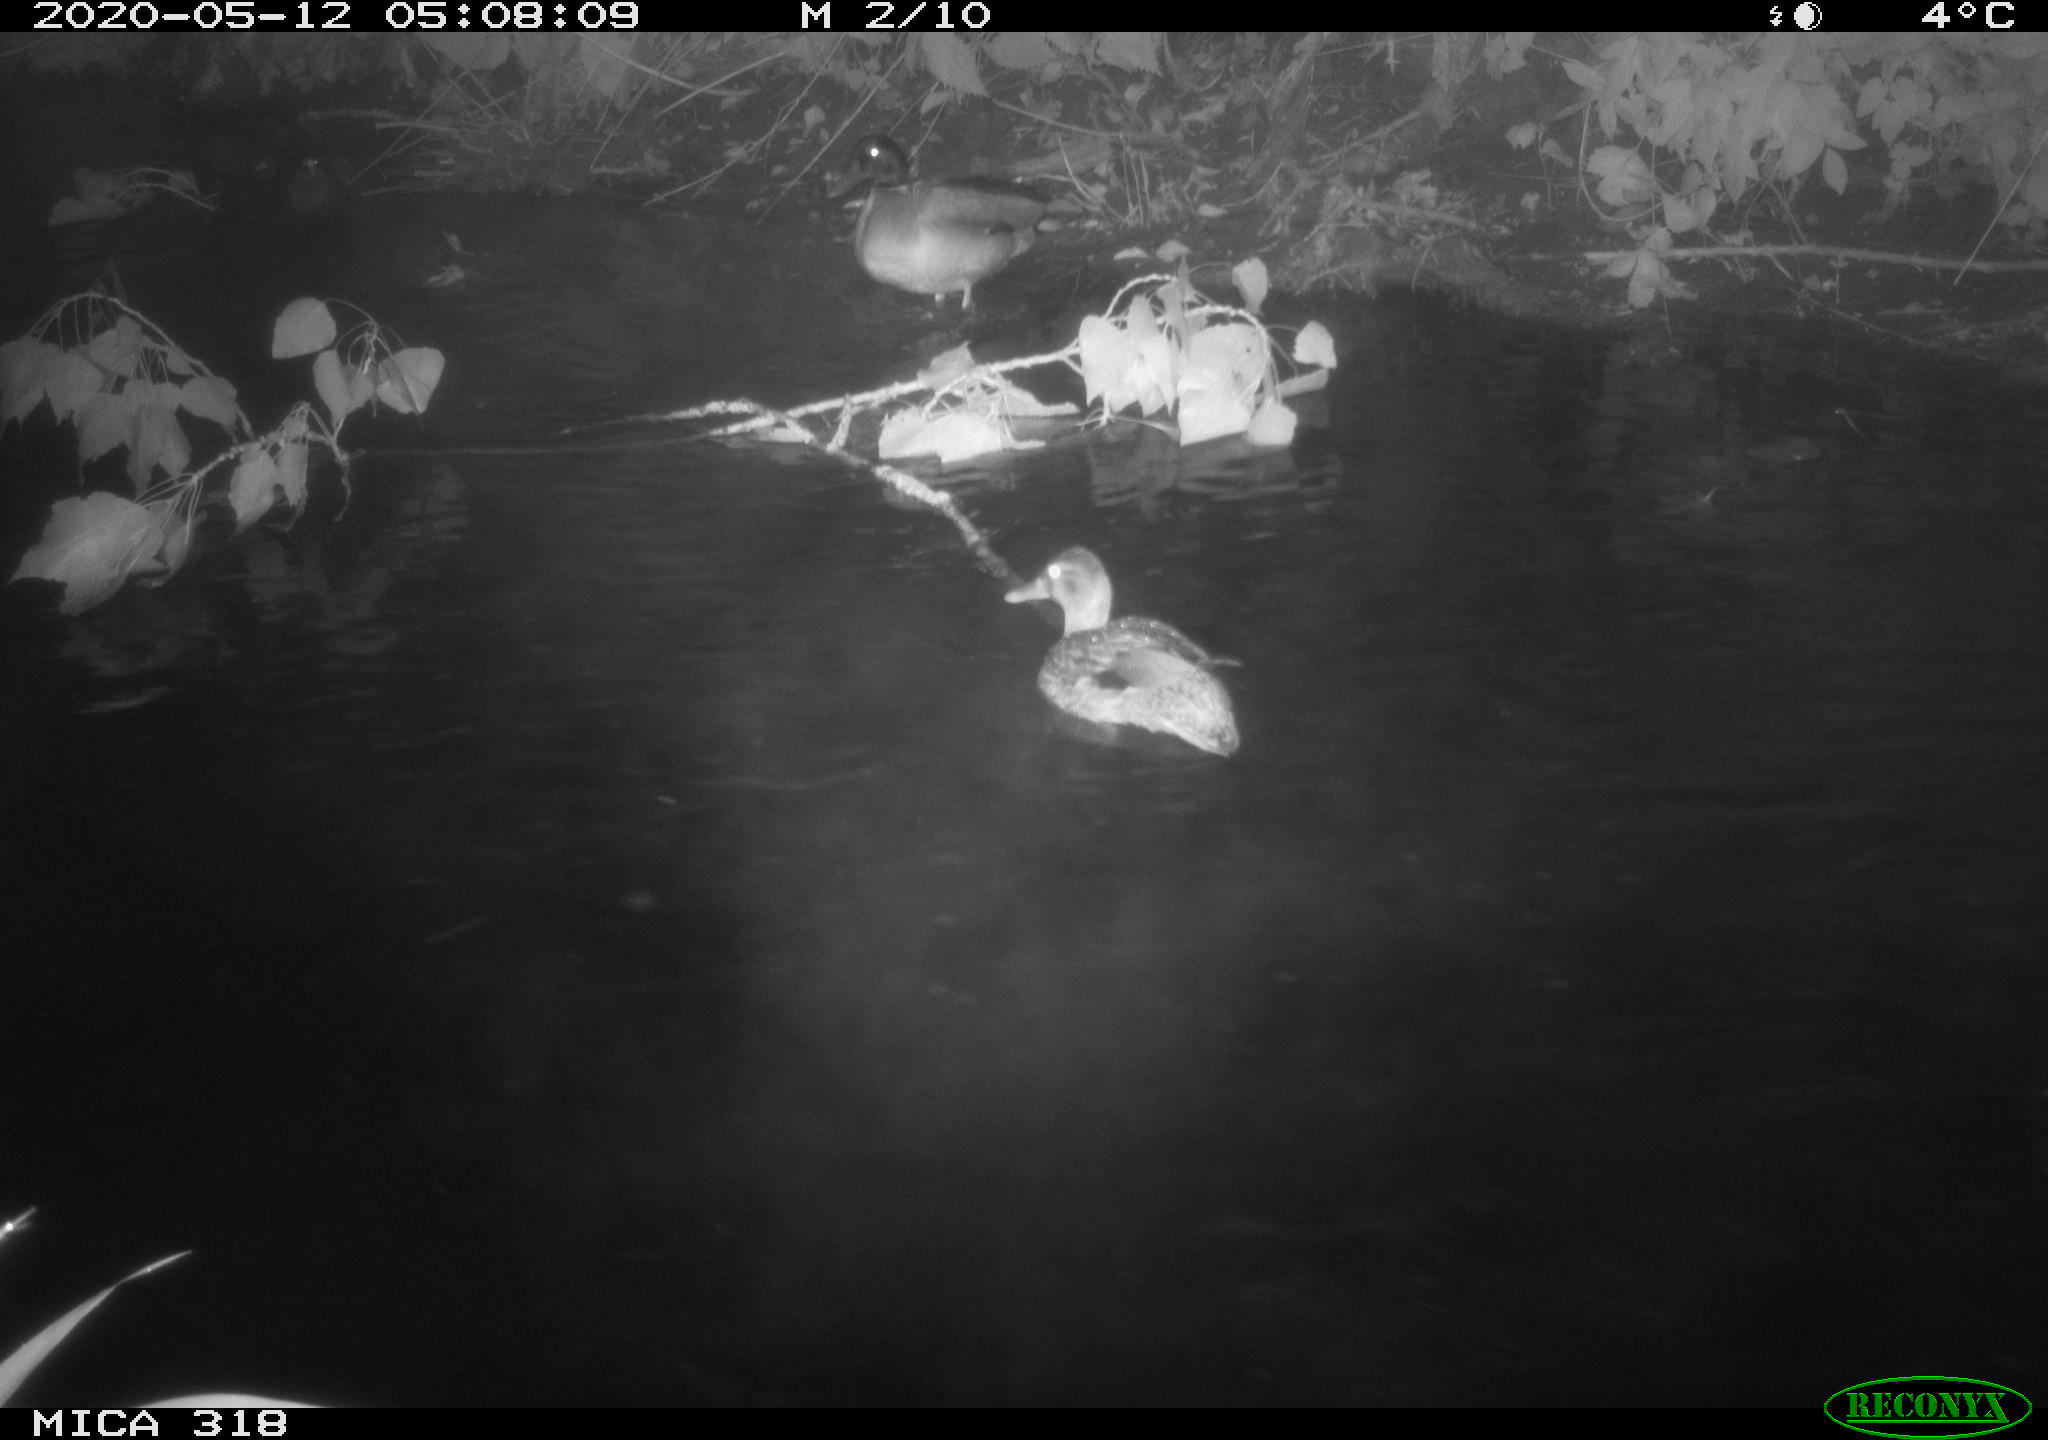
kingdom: Animalia
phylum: Chordata
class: Aves
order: Anseriformes
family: Anatidae
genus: Anas
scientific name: Anas platyrhynchos
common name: Mallard
